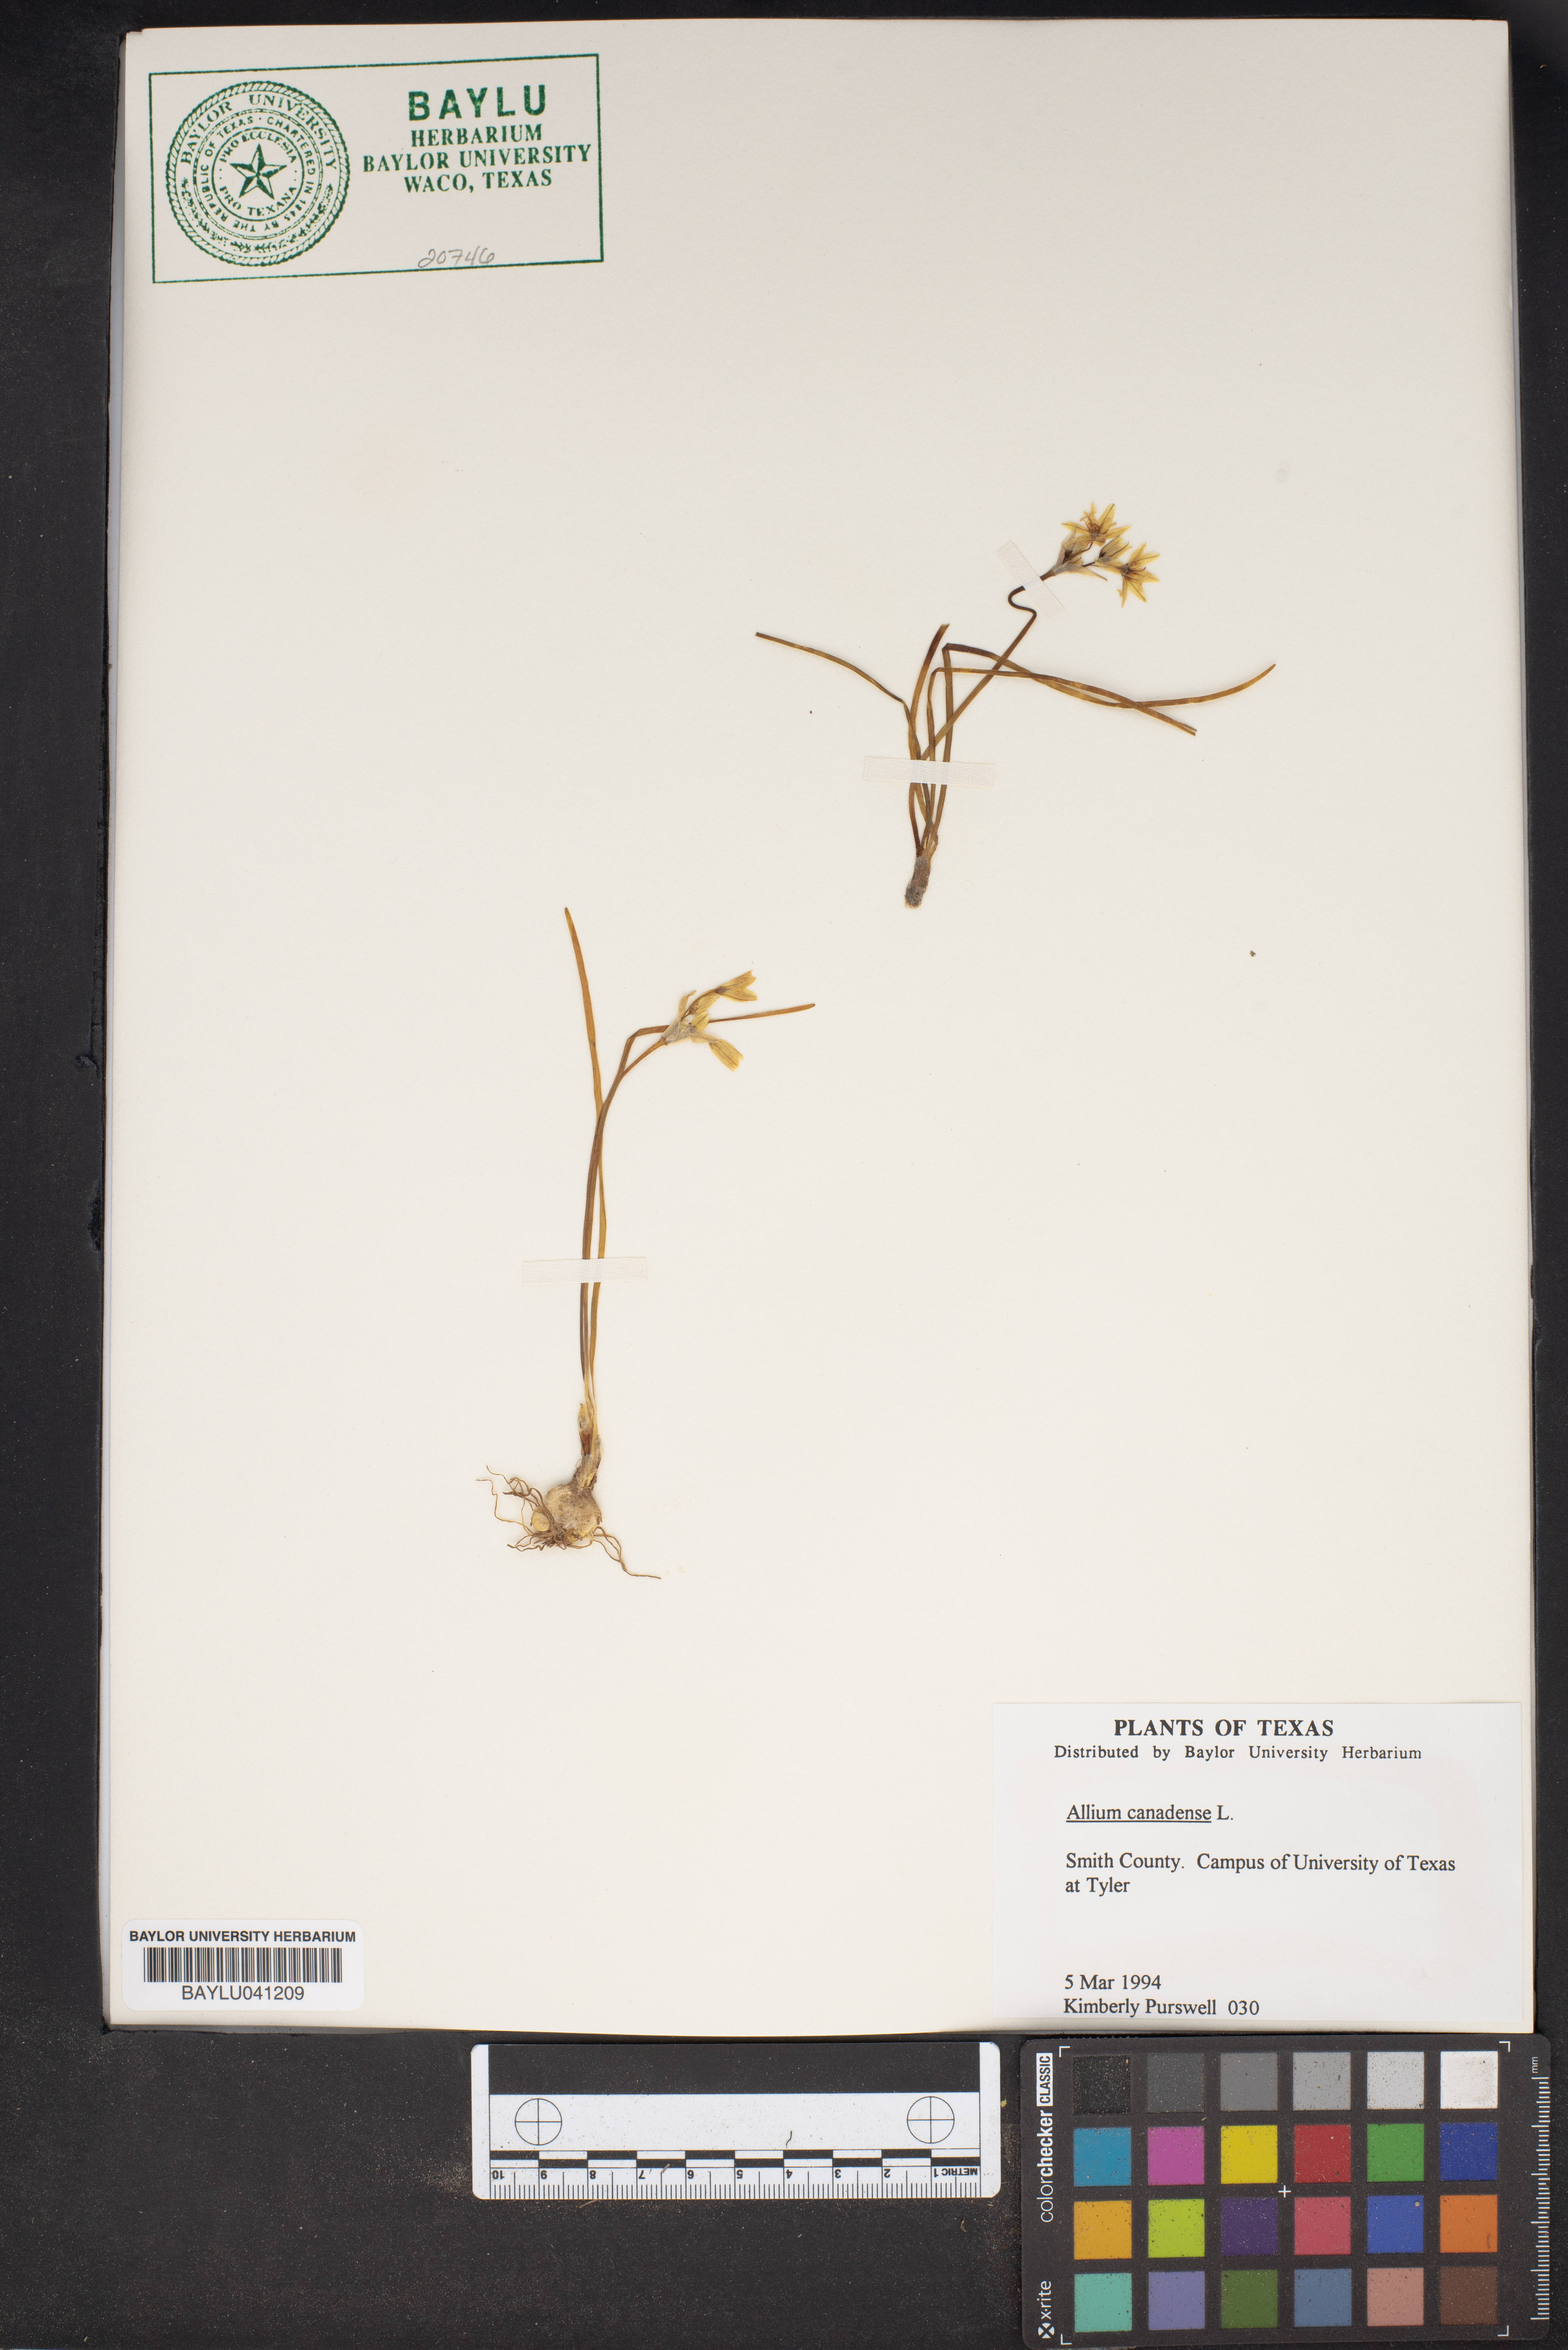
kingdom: Plantae
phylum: Tracheophyta
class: Liliopsida
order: Asparagales
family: Amaryllidaceae
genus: Allium
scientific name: Allium canadense
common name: Meadow garlic
